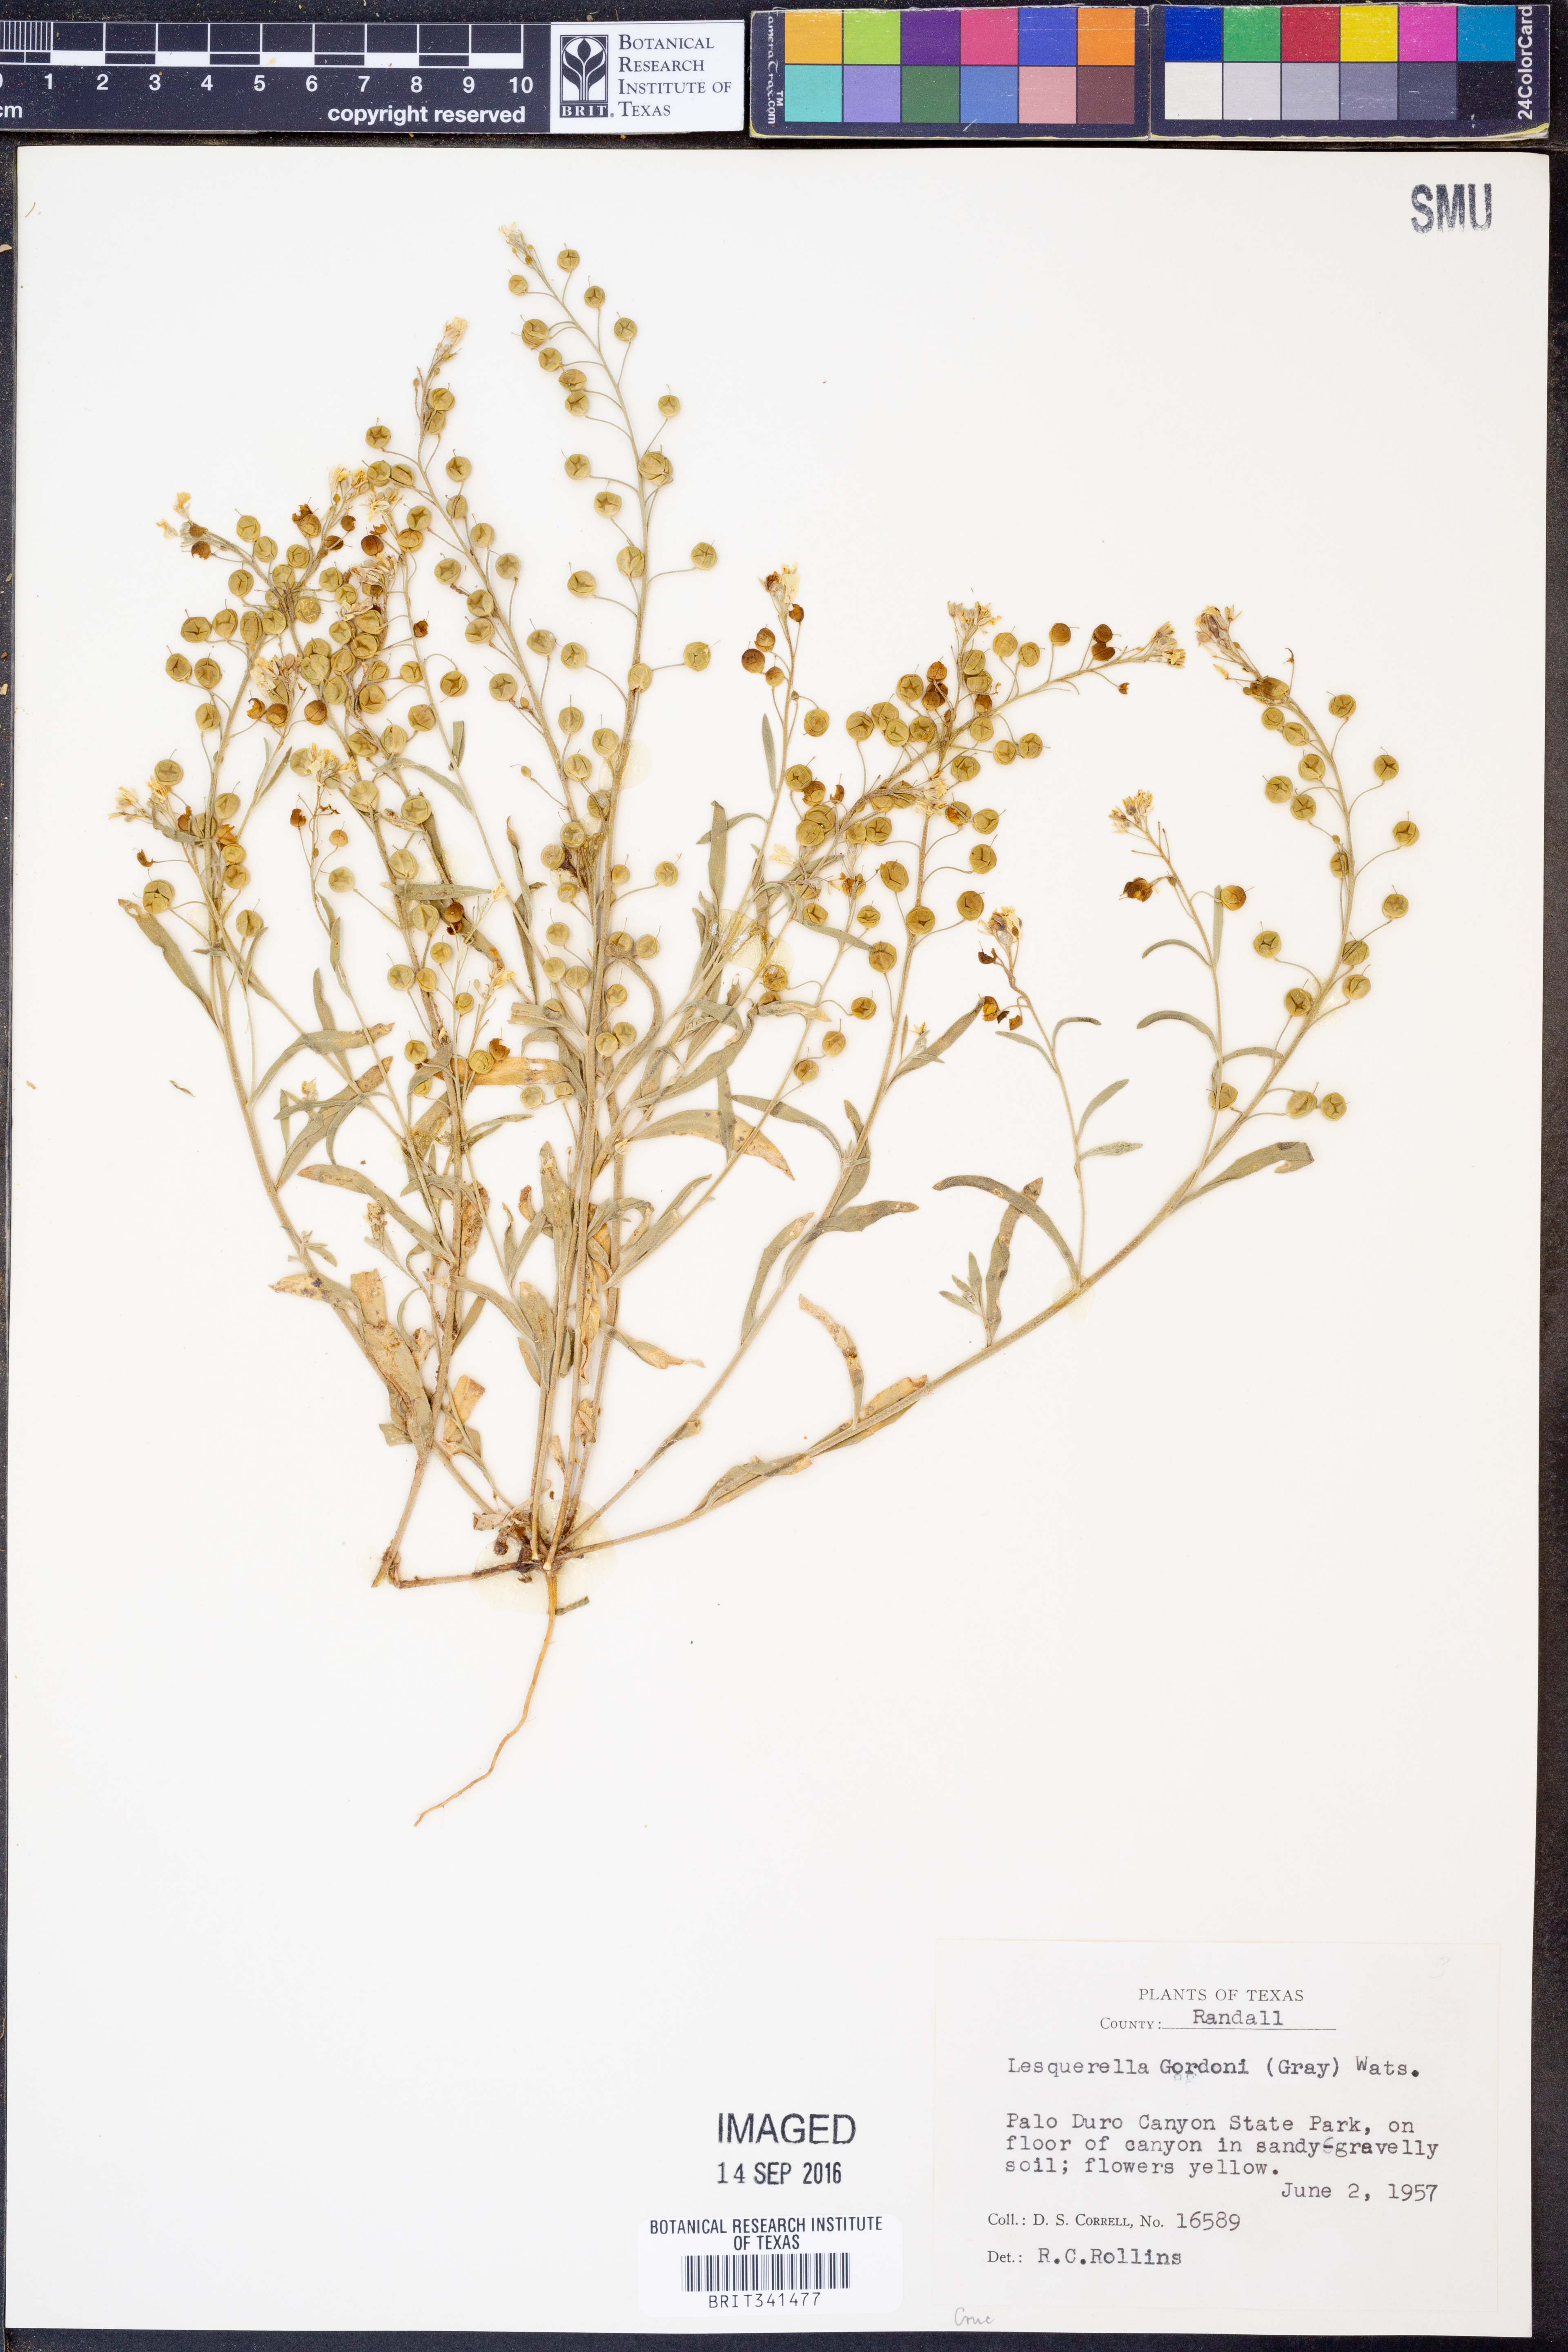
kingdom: Plantae
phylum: Tracheophyta
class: Magnoliopsida
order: Brassicales
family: Brassicaceae
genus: Physaria
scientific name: Physaria gordonii
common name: Gordon's bladderpod
